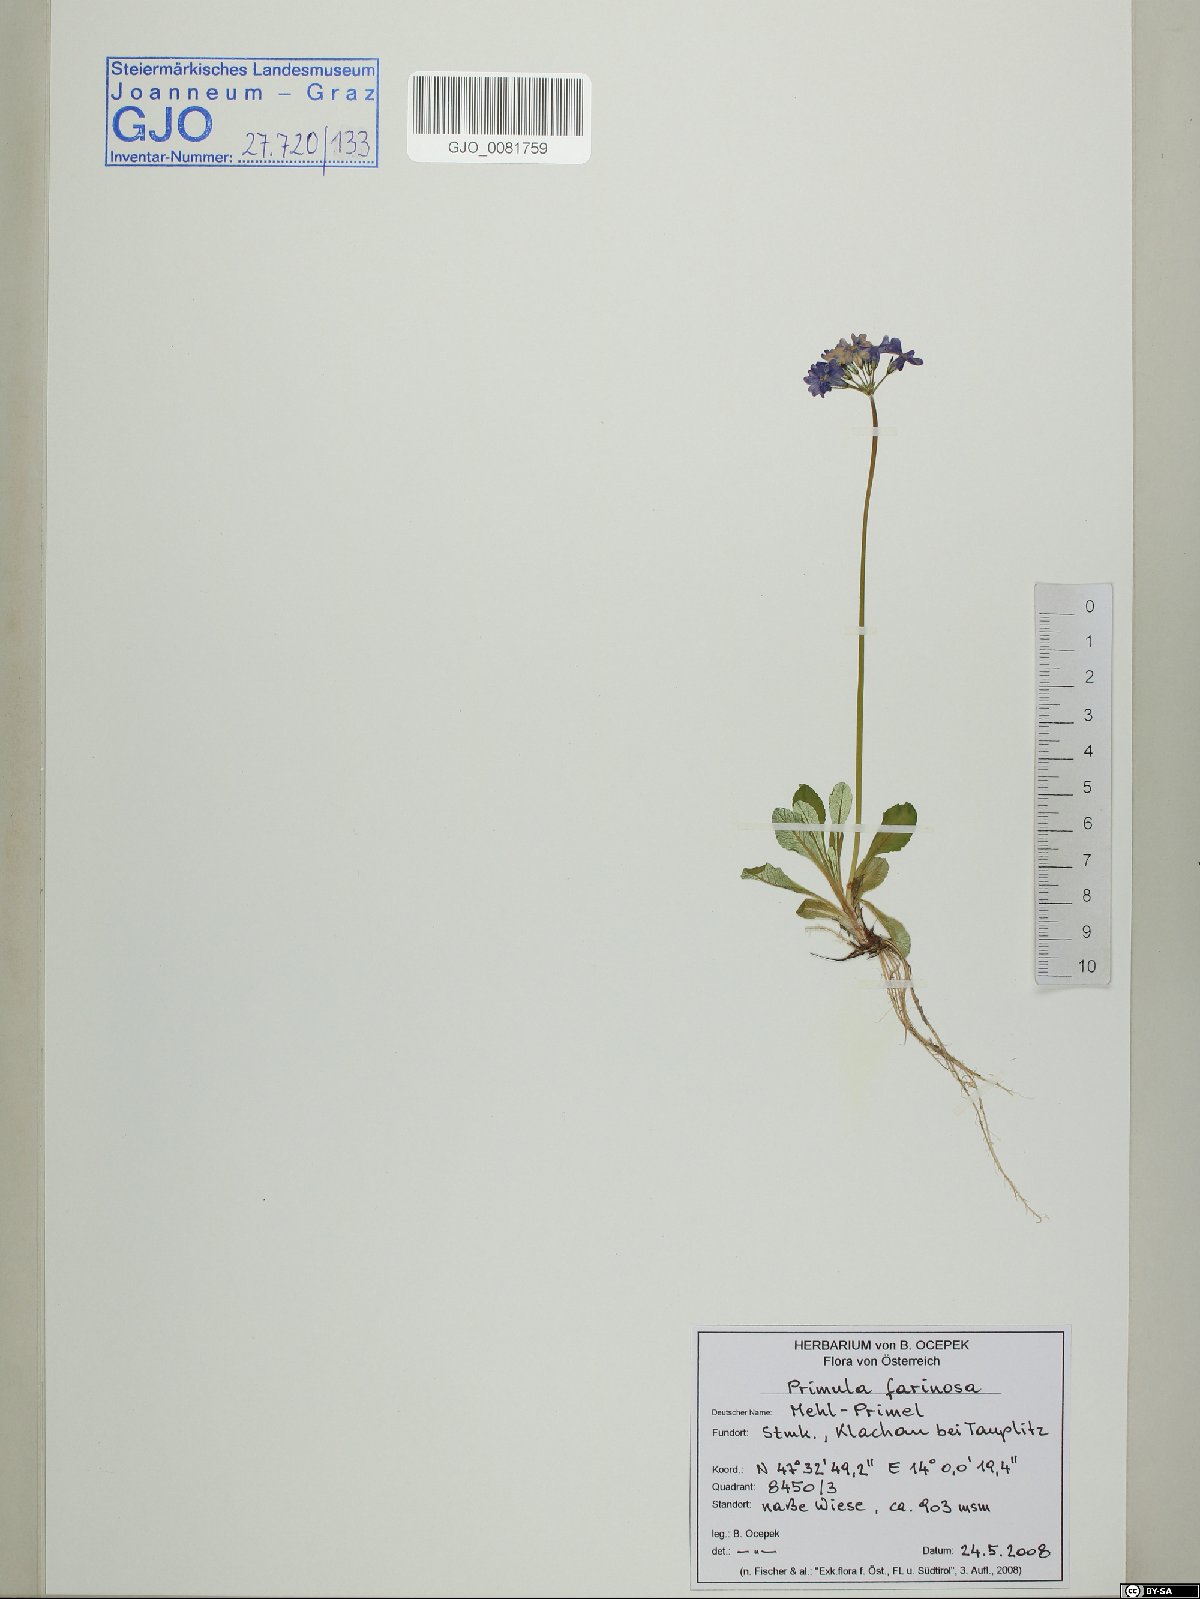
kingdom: Plantae
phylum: Tracheophyta
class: Magnoliopsida
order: Ericales
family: Primulaceae
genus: Primula
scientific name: Primula farinosa
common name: Bird's-eye primrose
